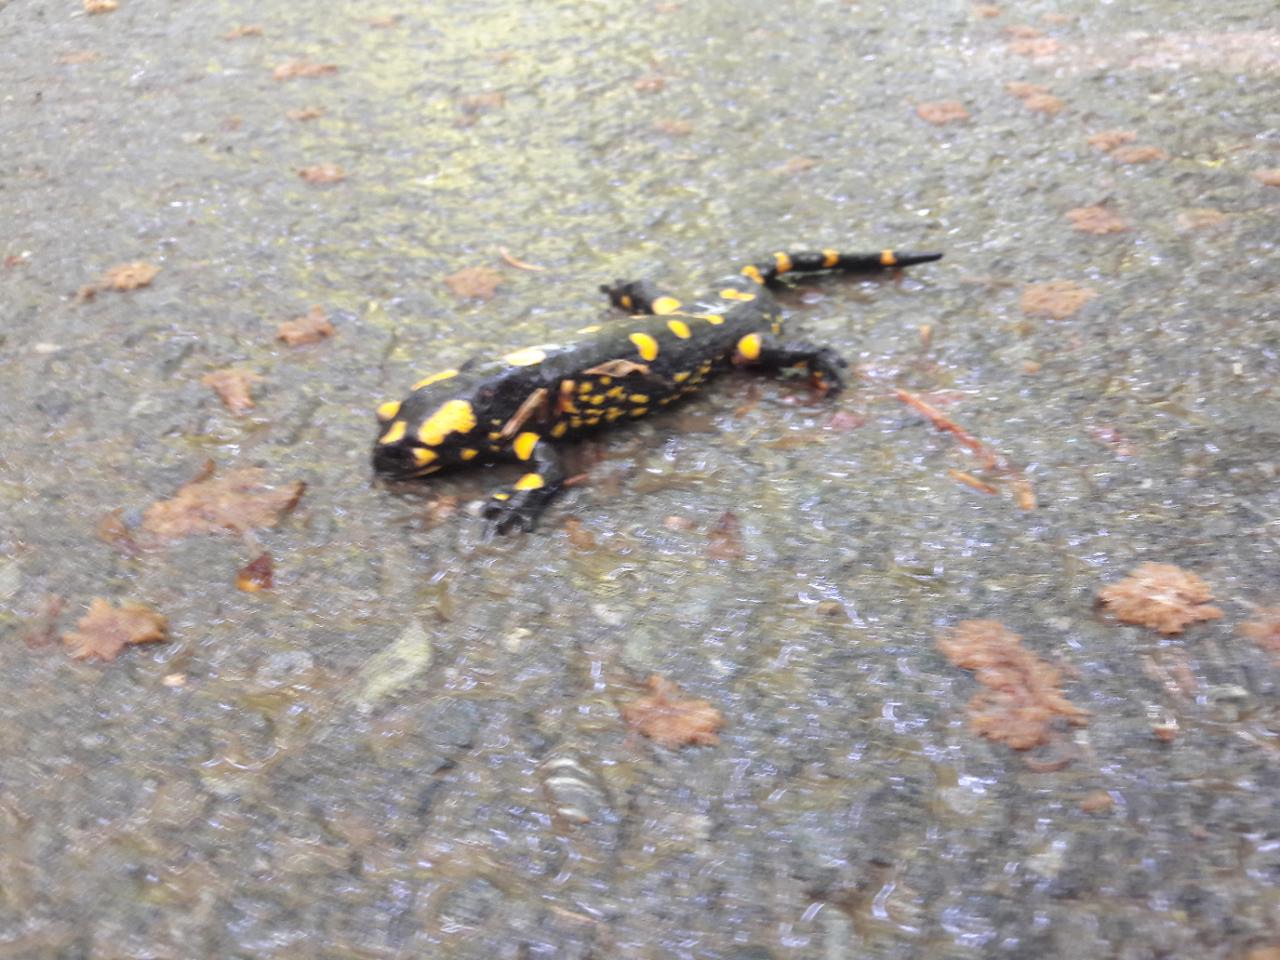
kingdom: Animalia
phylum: Chordata
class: Amphibia
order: Caudata
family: Salamandridae
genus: Salamandra
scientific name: Salamandra salamandra
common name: Fire salamander
